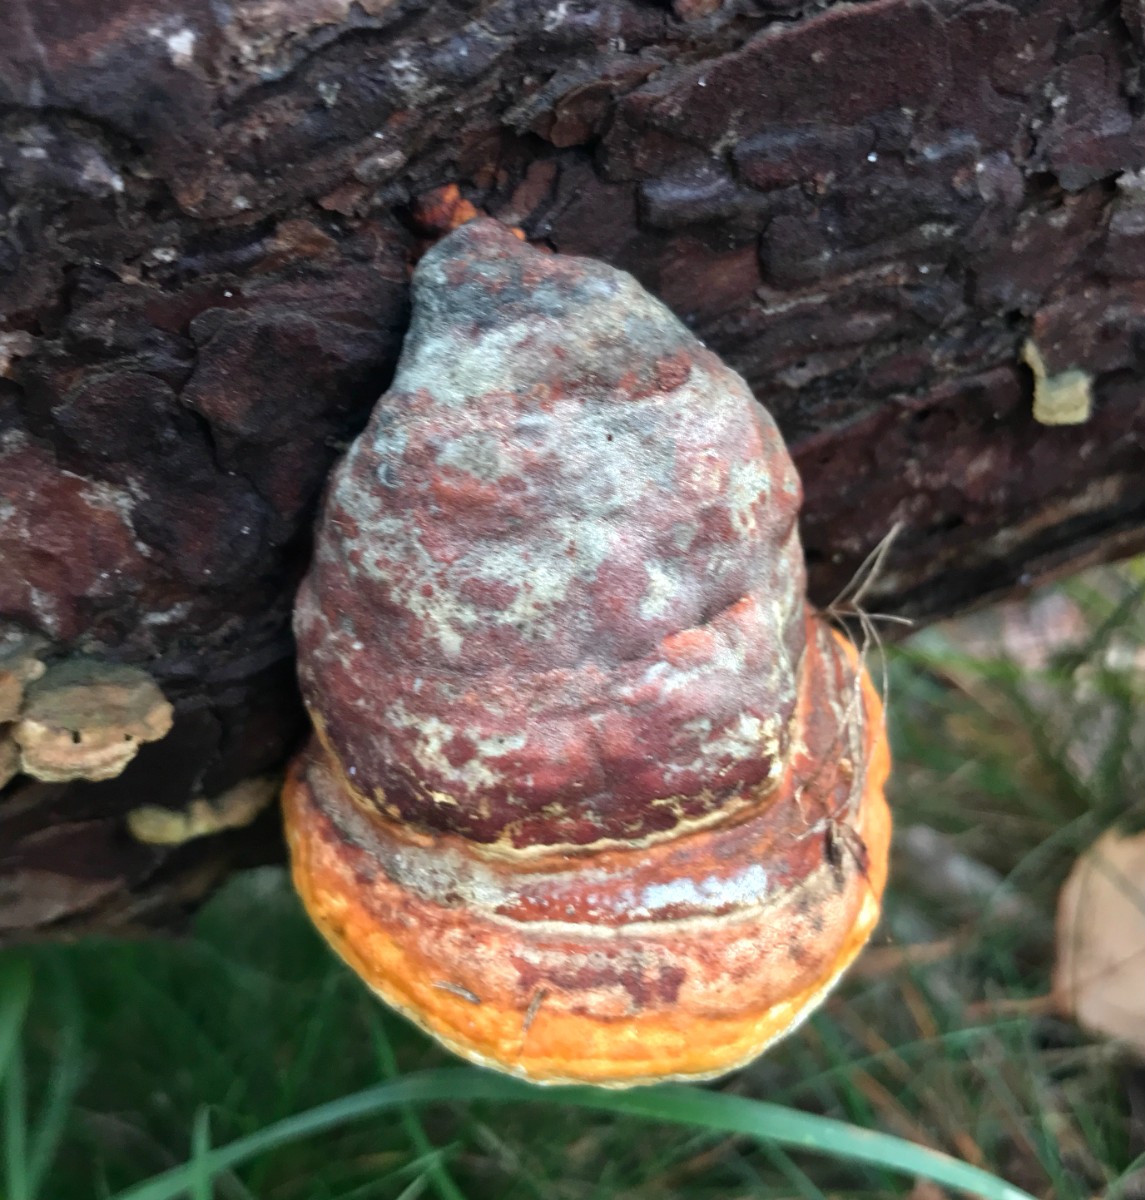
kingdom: Fungi
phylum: Basidiomycota
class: Agaricomycetes
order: Polyporales
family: Fomitopsidaceae
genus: Fomitopsis
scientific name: Fomitopsis pinicola
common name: randbæltet hovporesvamp
